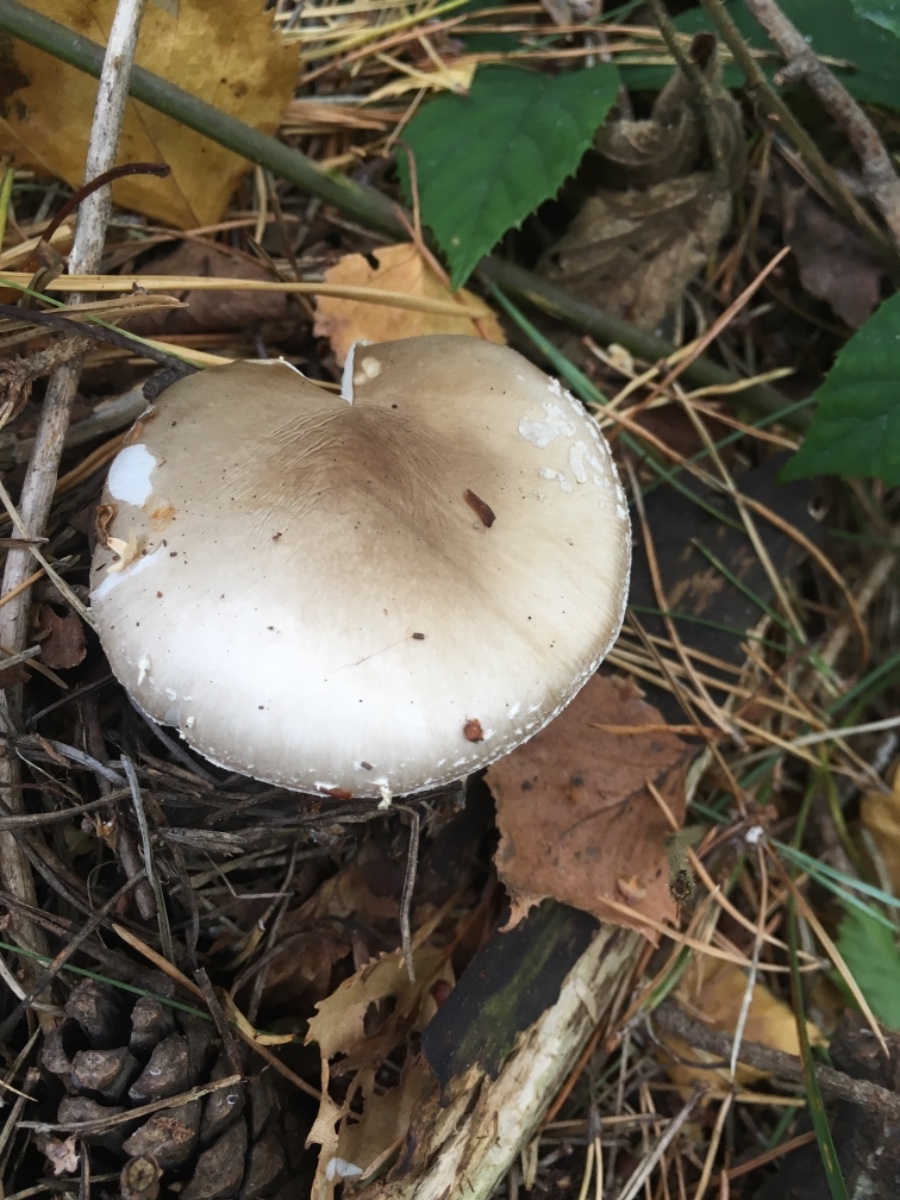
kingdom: Fungi
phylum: Basidiomycota
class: Agaricomycetes
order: Agaricales
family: Amanitaceae
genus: Amanita
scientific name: Amanita
